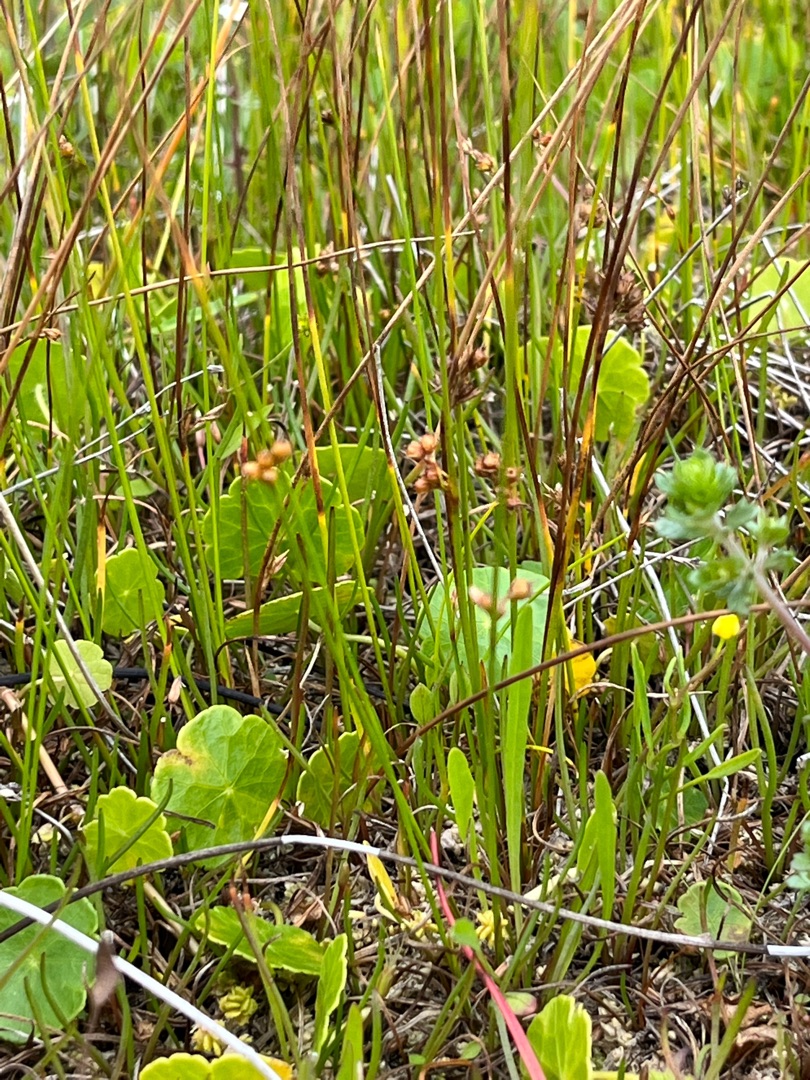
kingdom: Plantae
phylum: Tracheophyta
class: Liliopsida
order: Poales
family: Juncaceae
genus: Juncus
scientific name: Juncus filiformis
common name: Tråd-siv
